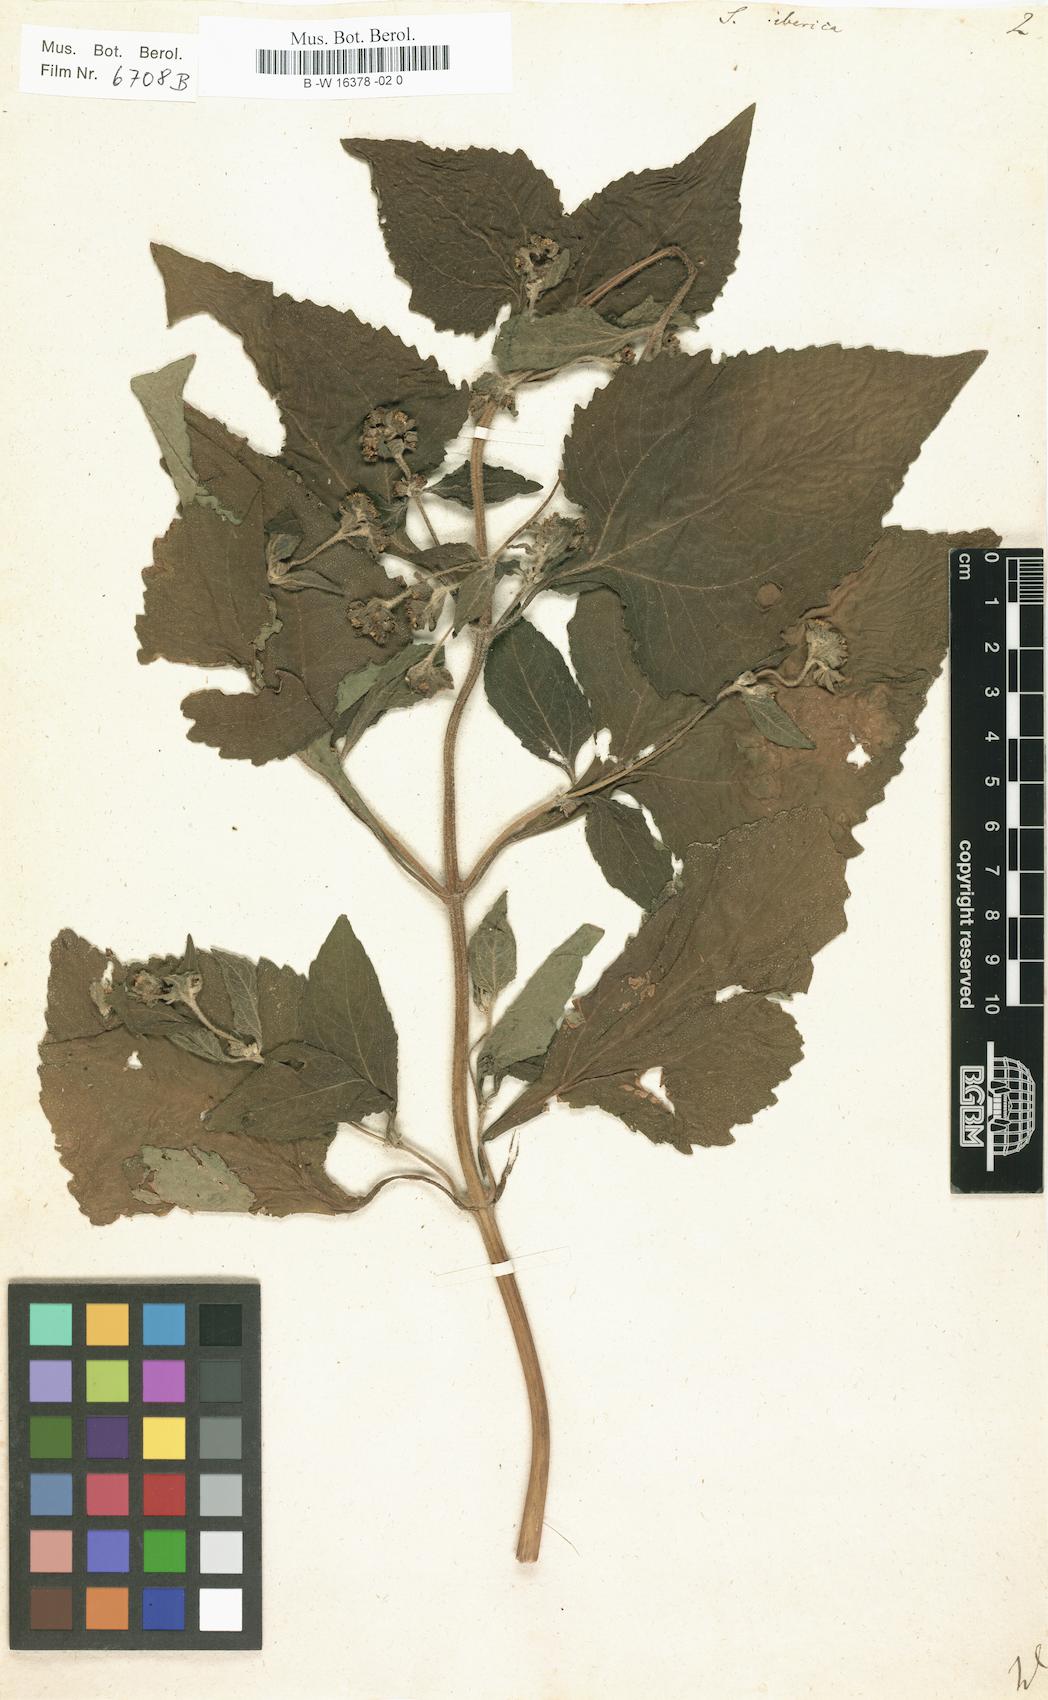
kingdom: Plantae
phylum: Tracheophyta
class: Magnoliopsida
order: Asterales
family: Asteraceae
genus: Siegesbeckia
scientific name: Siegesbeckia
